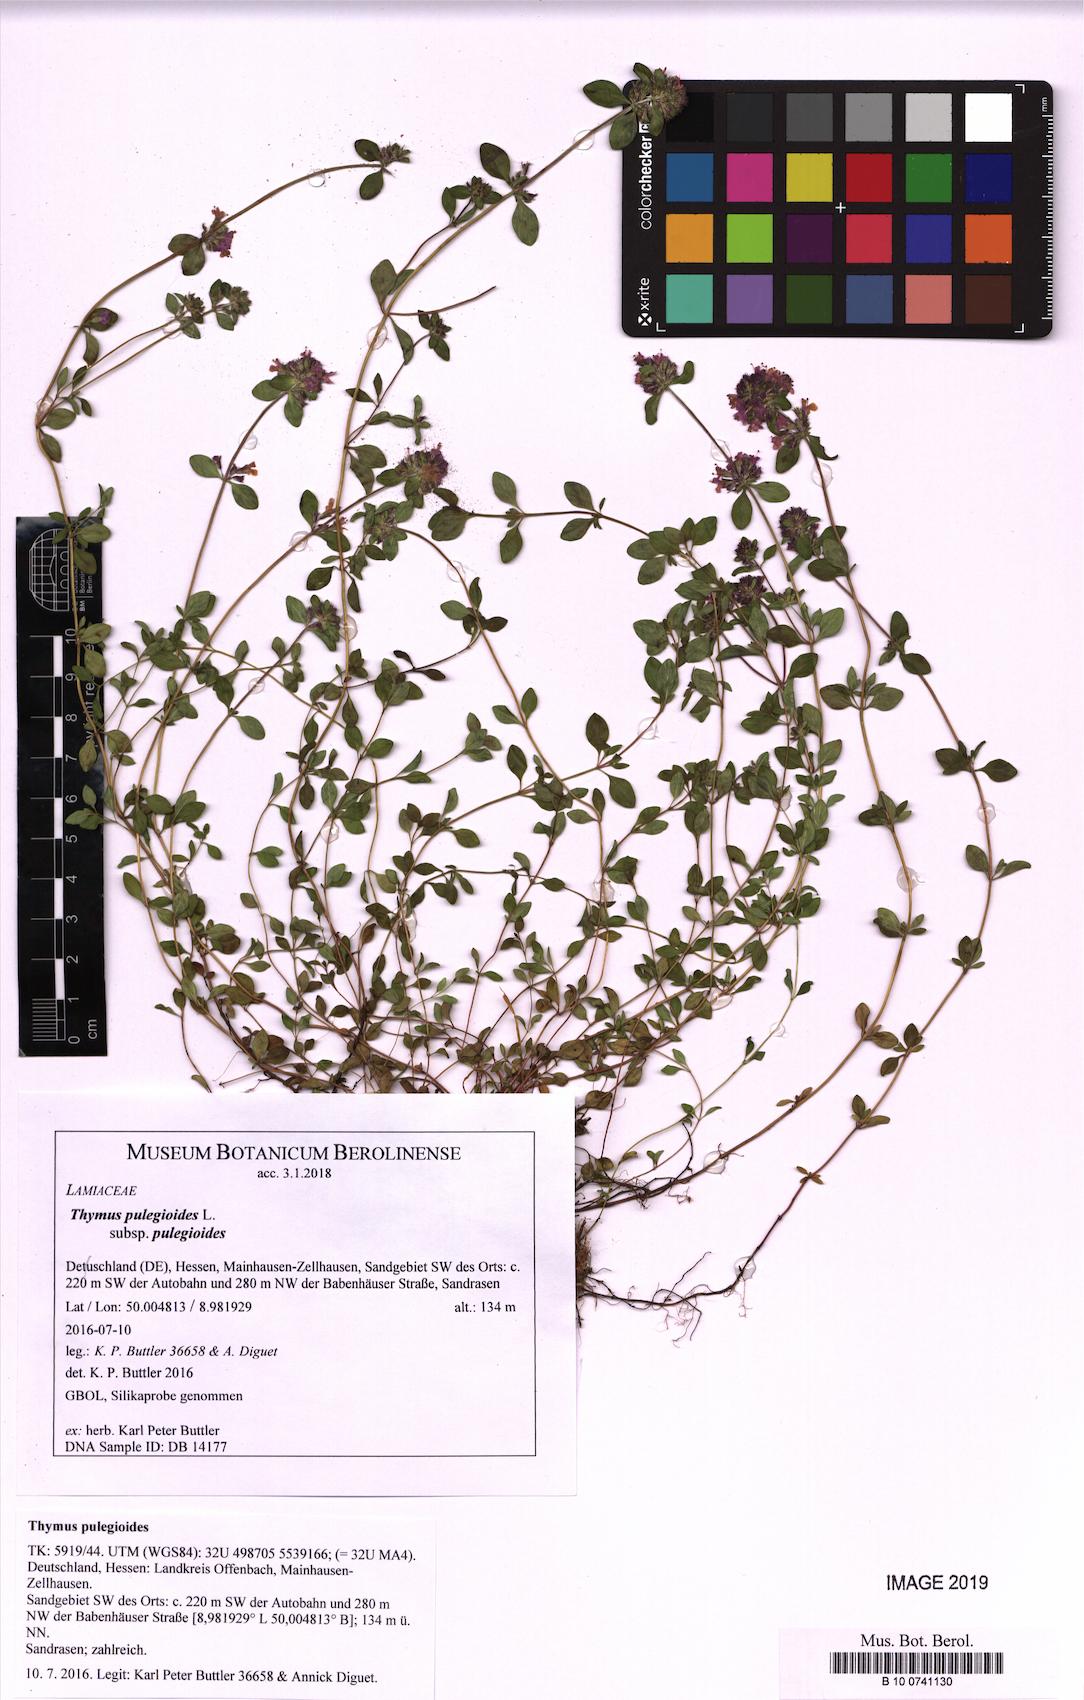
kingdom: Plantae
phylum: Tracheophyta
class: Magnoliopsida
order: Lamiales
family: Lamiaceae
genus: Thymus
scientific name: Thymus pulegioides
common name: Large thyme
